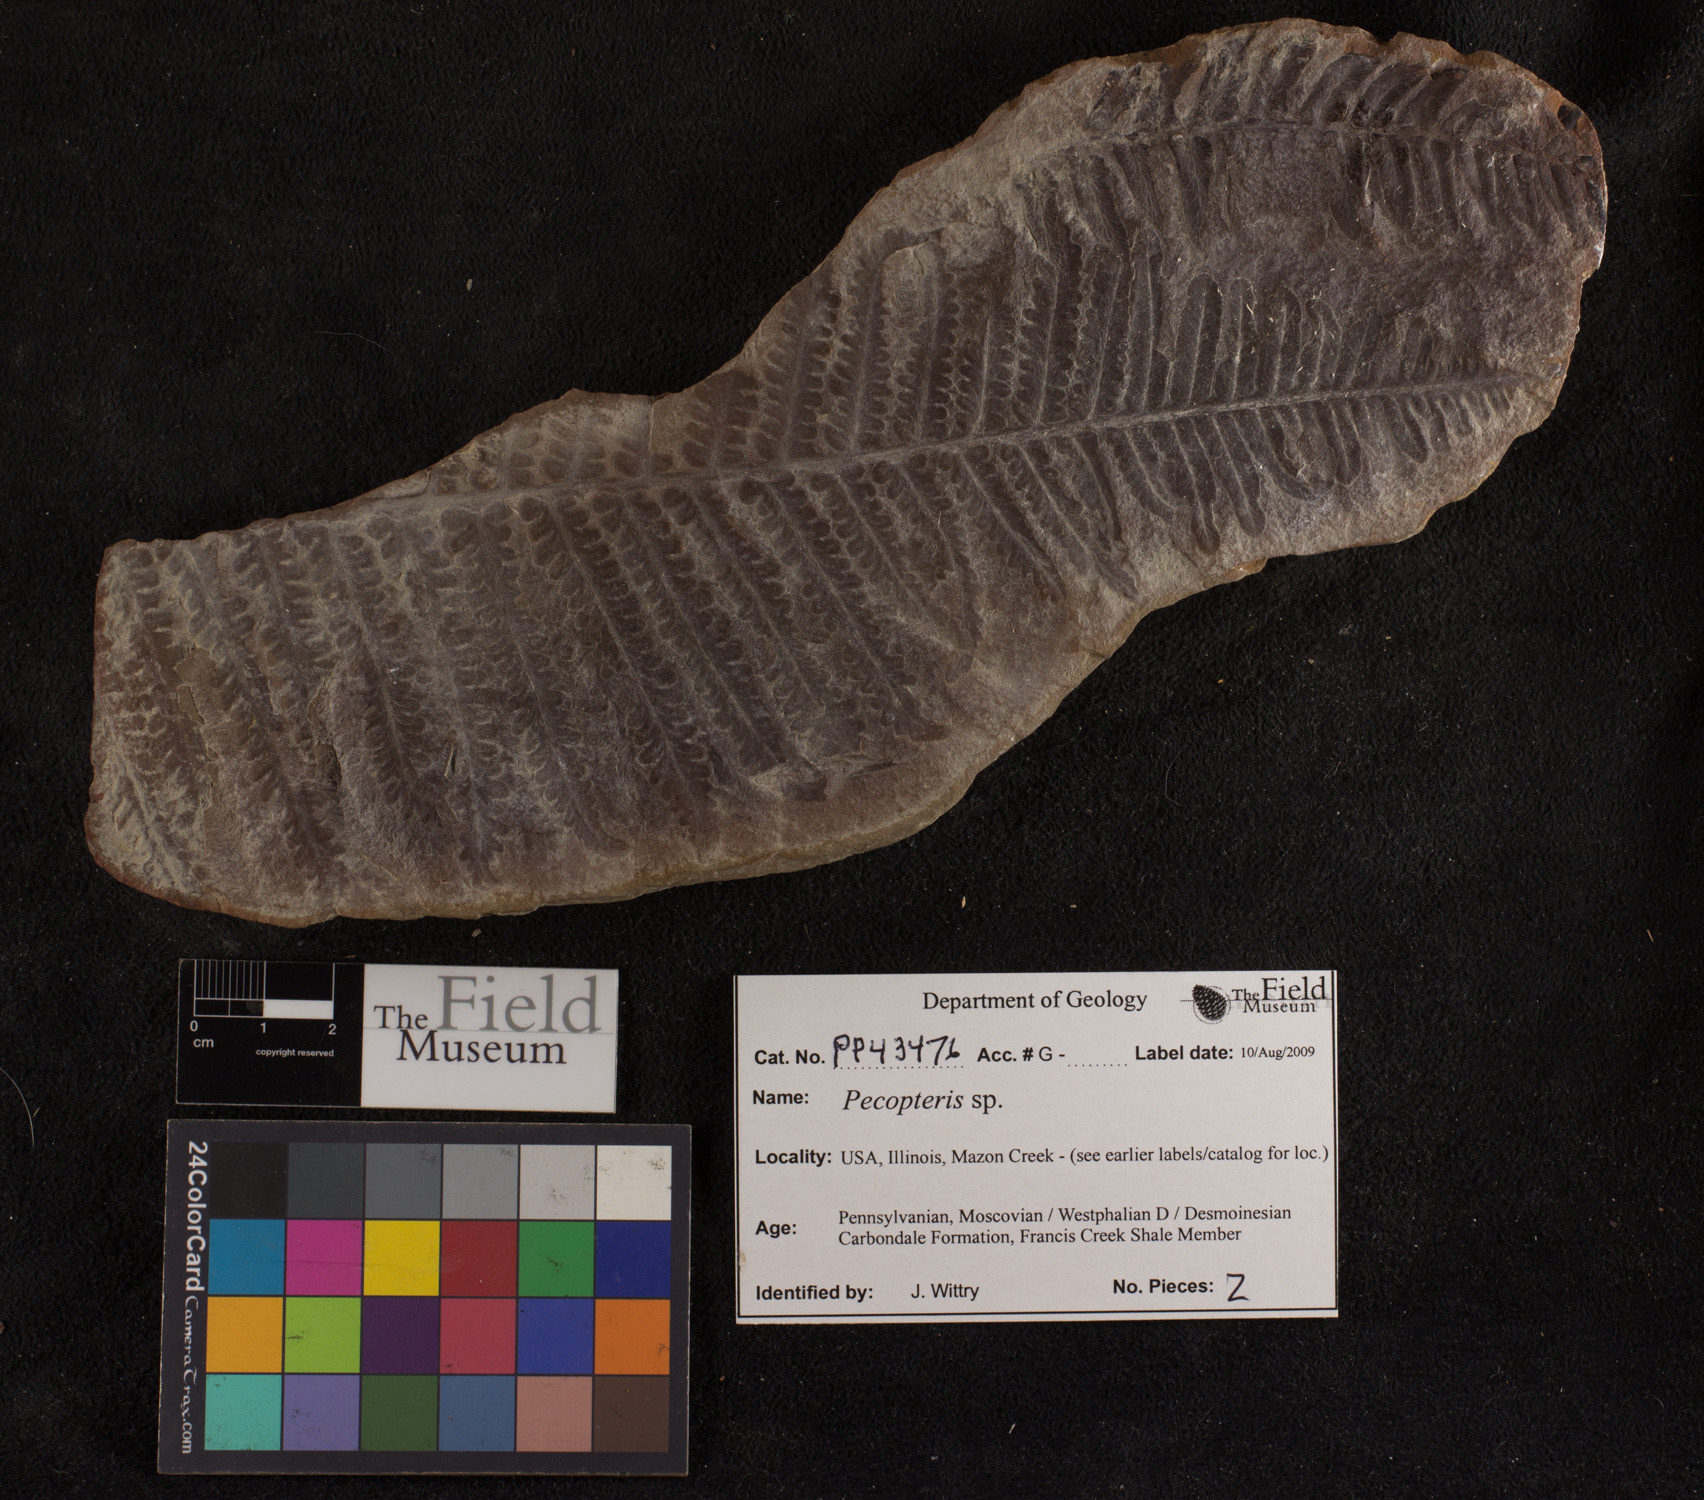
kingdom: Plantae
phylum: Tracheophyta
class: Polypodiopsida
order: Marattiales
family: Asterothecaceae
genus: Pecopteris
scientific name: Pecopteris
